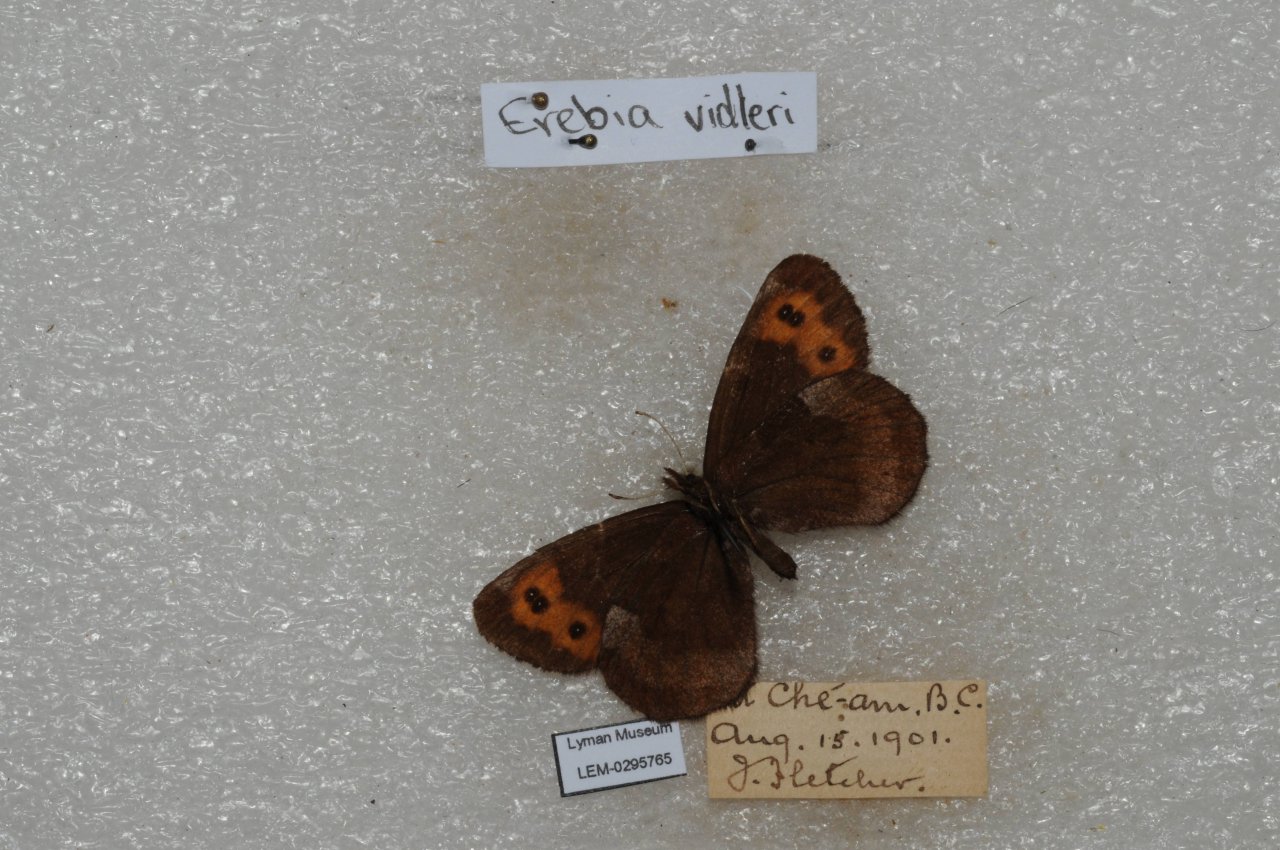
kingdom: Animalia
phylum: Arthropoda
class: Insecta
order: Lepidoptera
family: Nymphalidae
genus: Erebia
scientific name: Erebia vidleri
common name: Vidler's Alpine
